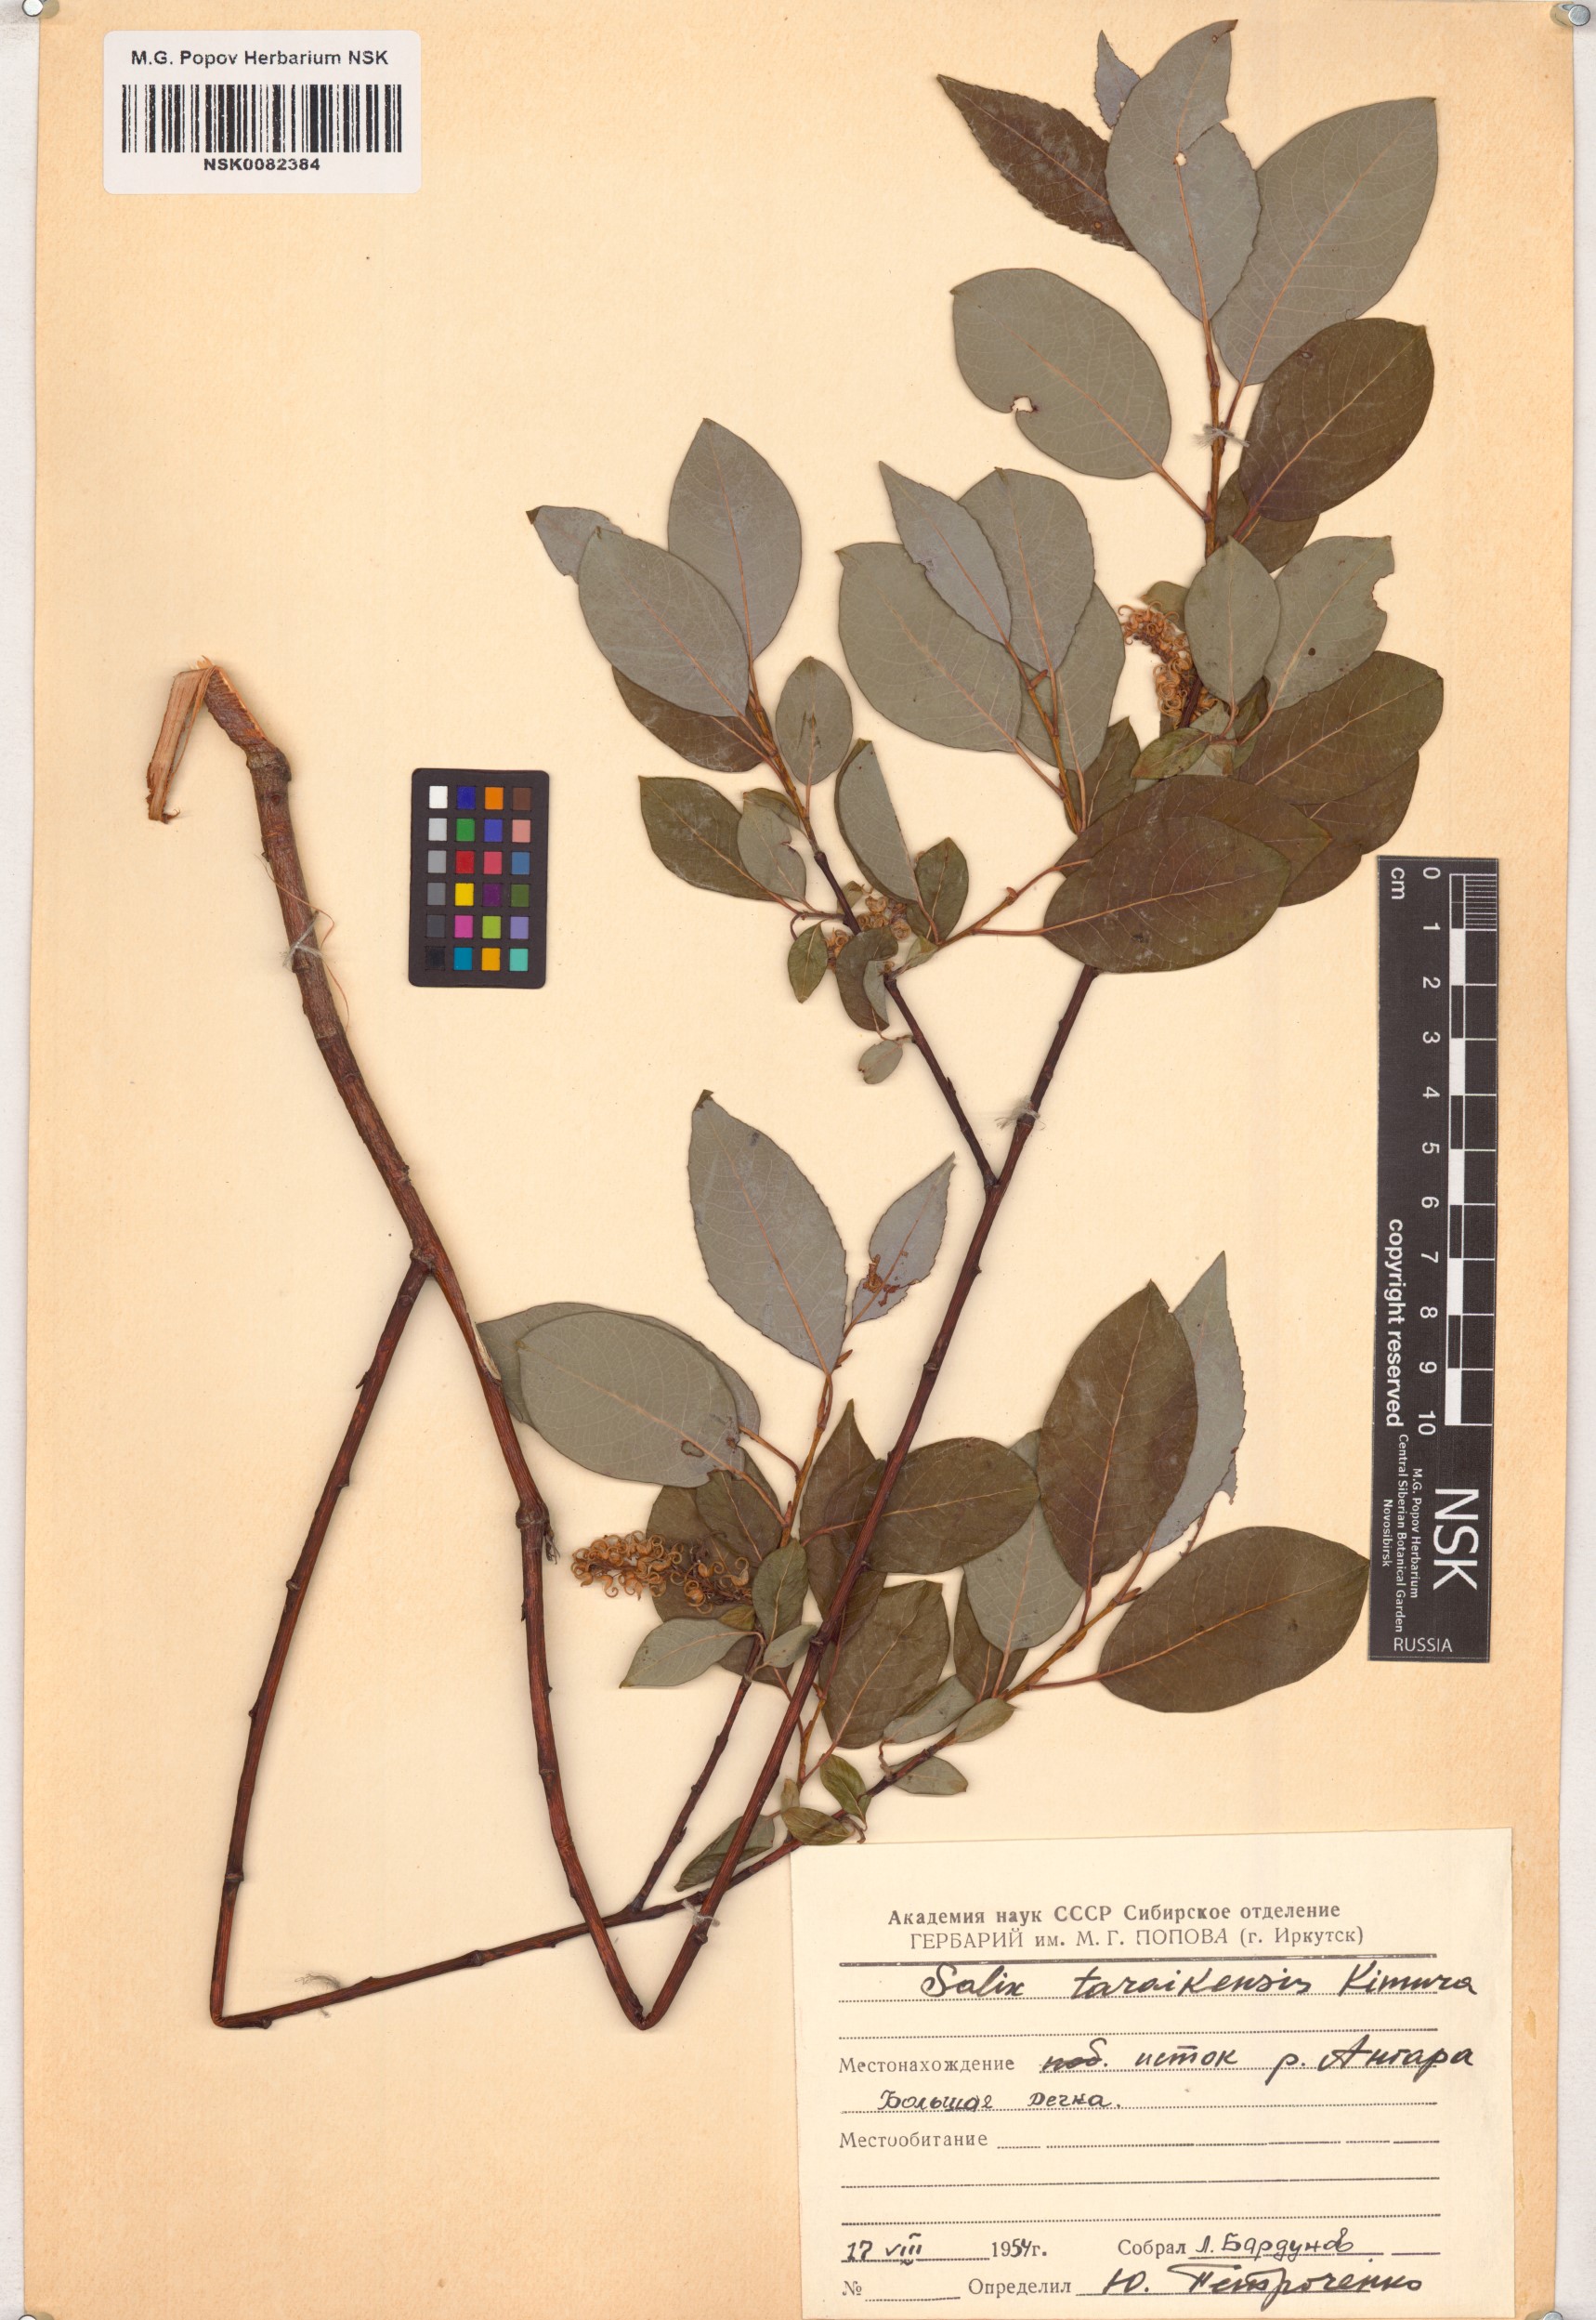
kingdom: Plantae
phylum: Tracheophyta
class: Magnoliopsida
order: Malpighiales
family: Salicaceae
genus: Salix
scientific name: Salix taraikensis
